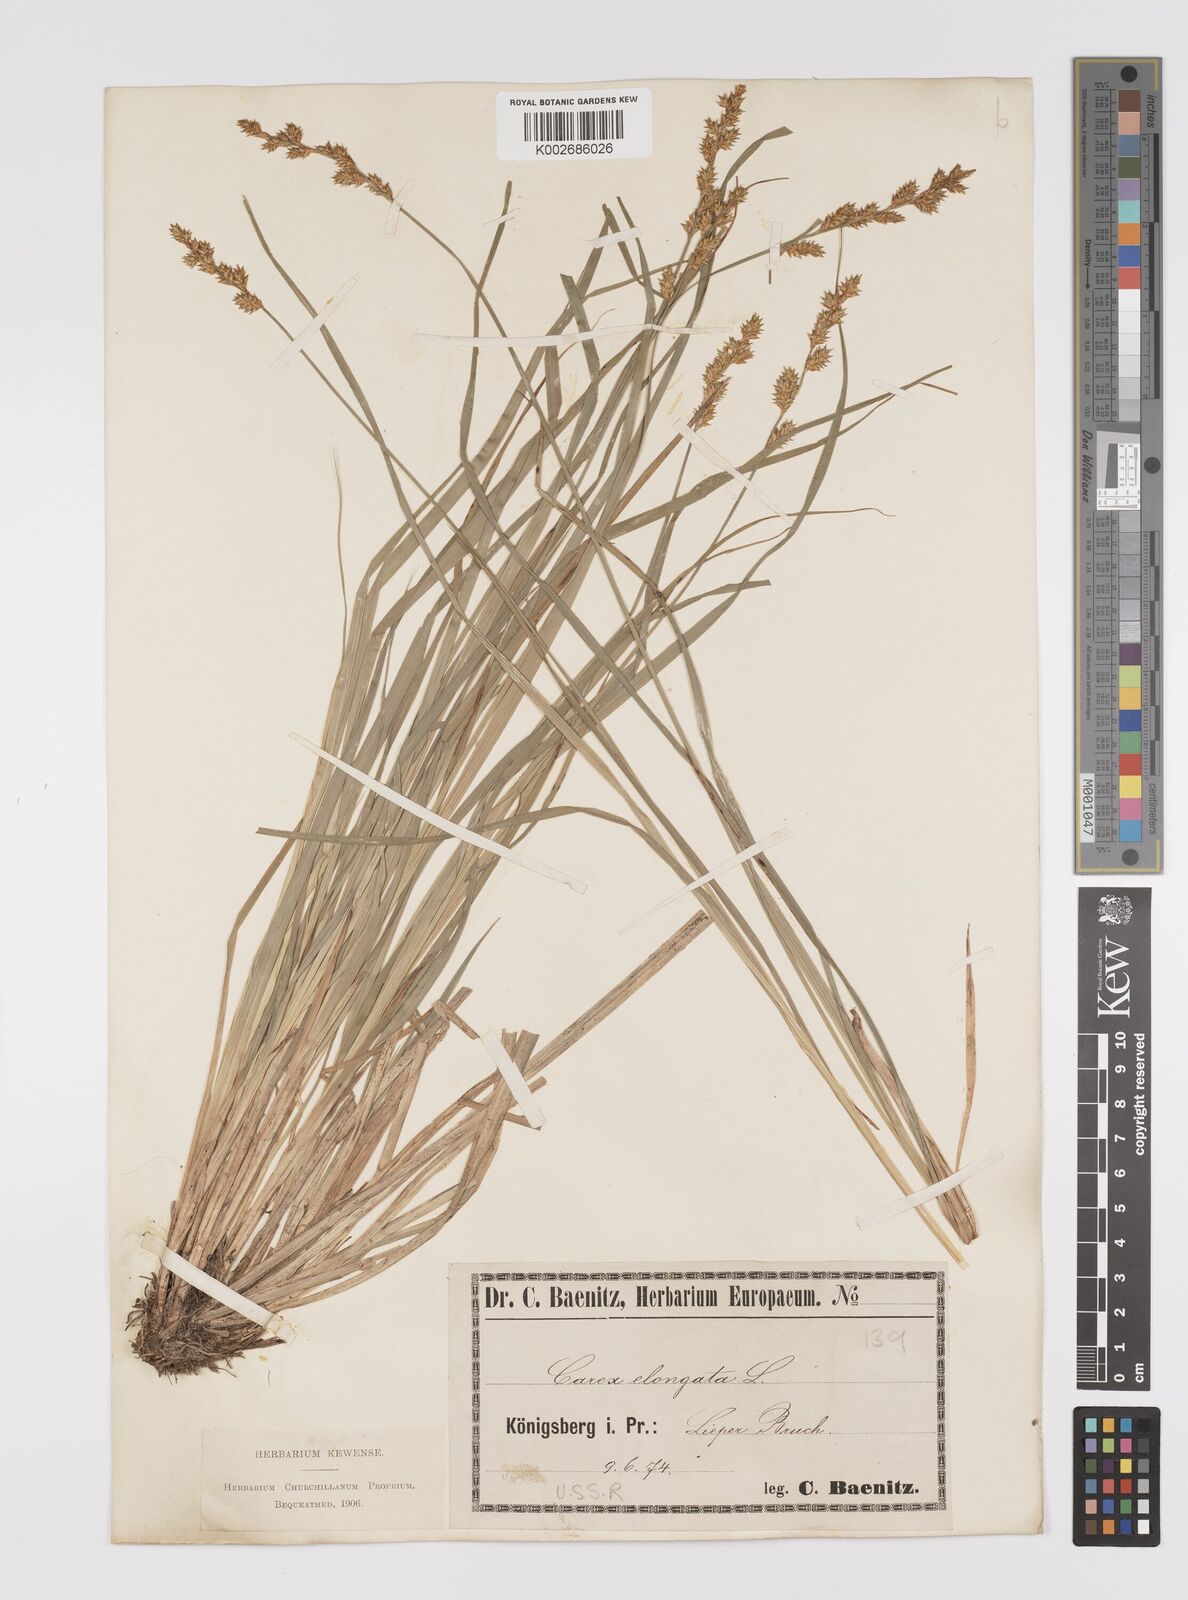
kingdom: Plantae
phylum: Tracheophyta
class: Liliopsida
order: Poales
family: Cyperaceae
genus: Carex
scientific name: Carex elongata
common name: Elongated sedge
